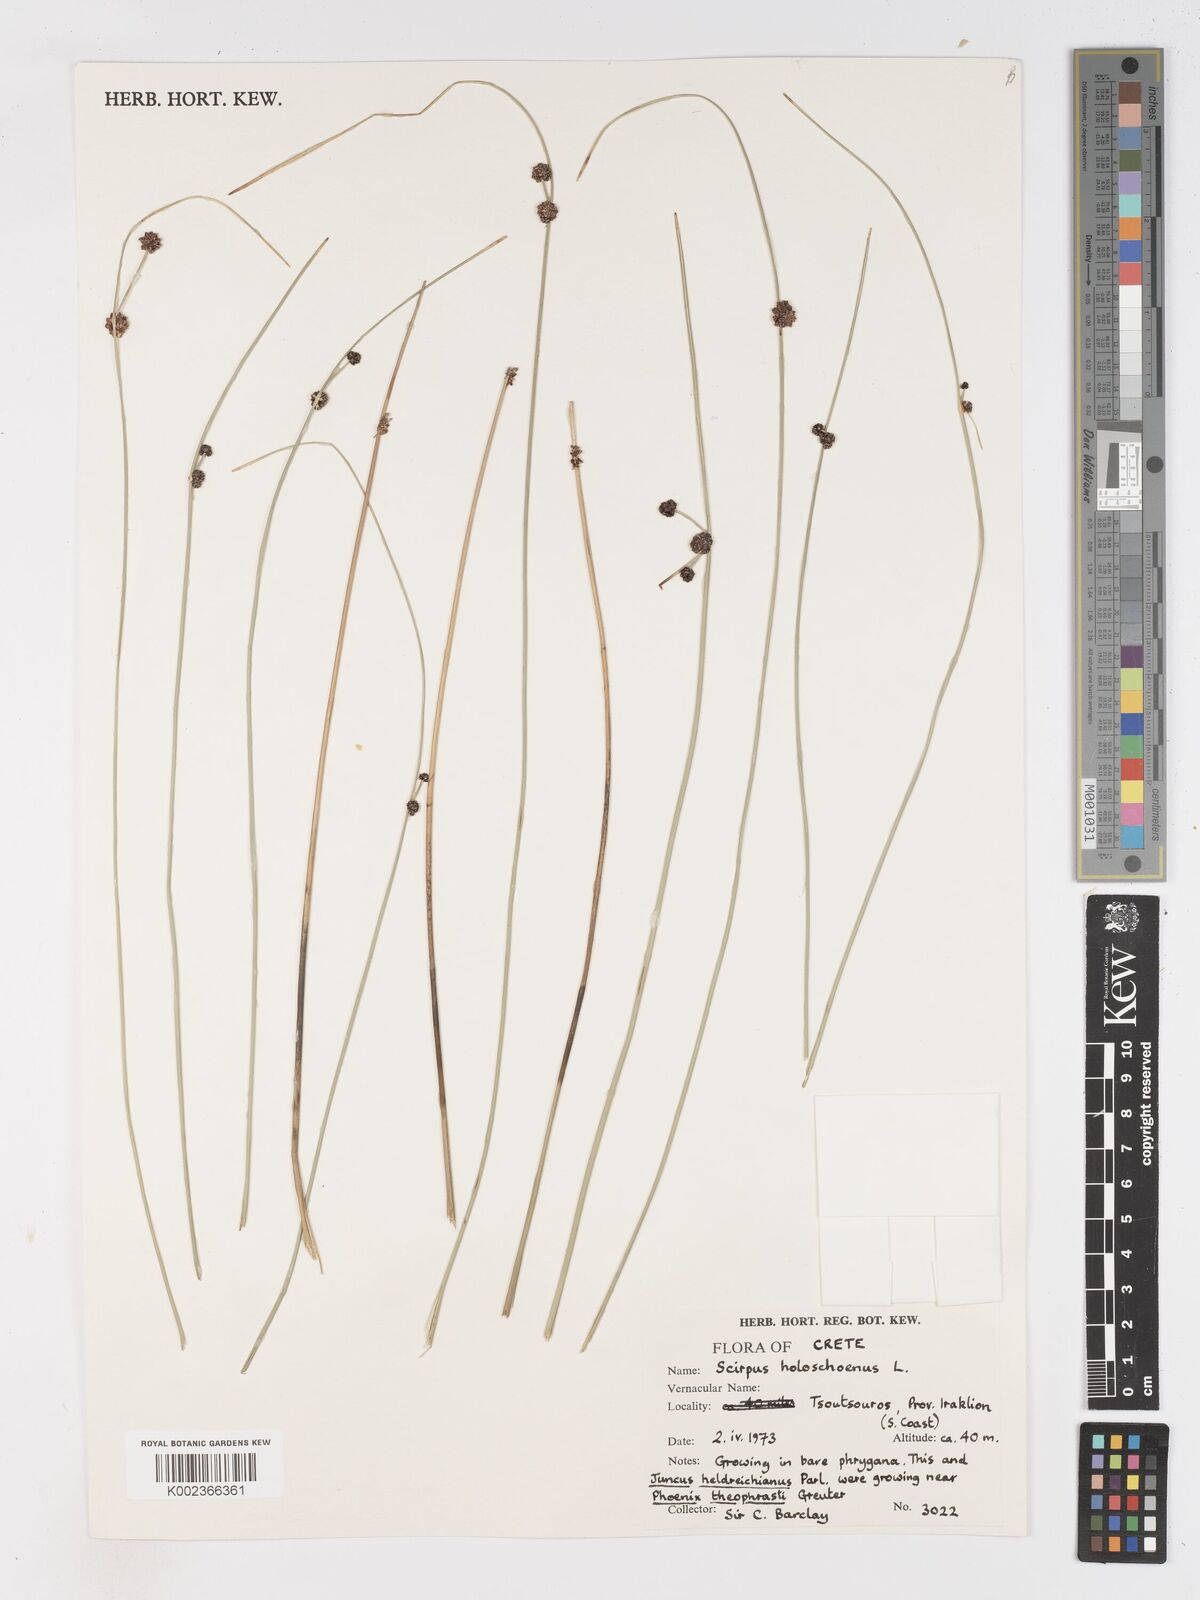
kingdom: Plantae
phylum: Tracheophyta
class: Liliopsida
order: Poales
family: Cyperaceae
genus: Scirpoides
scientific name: Scirpoides holoschoenus
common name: Round-headed club-rush
